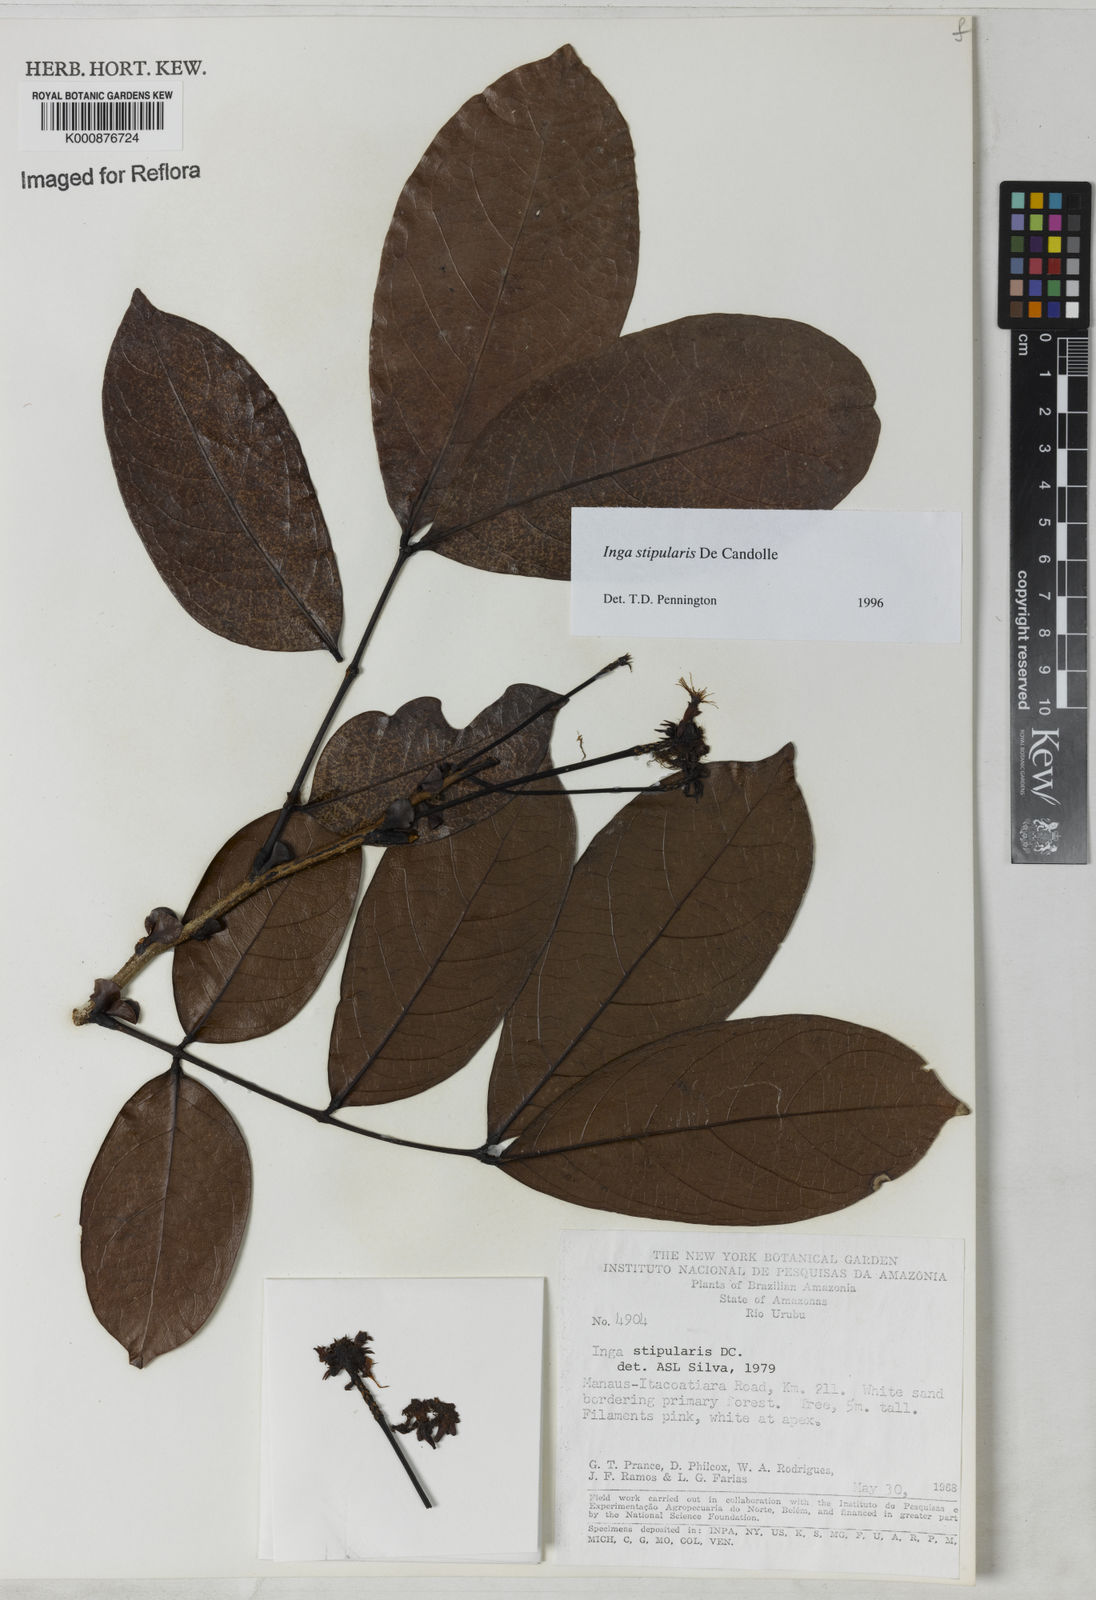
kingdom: Plantae
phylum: Tracheophyta
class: Magnoliopsida
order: Fabales
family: Fabaceae
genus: Inga
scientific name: Inga stipularis
